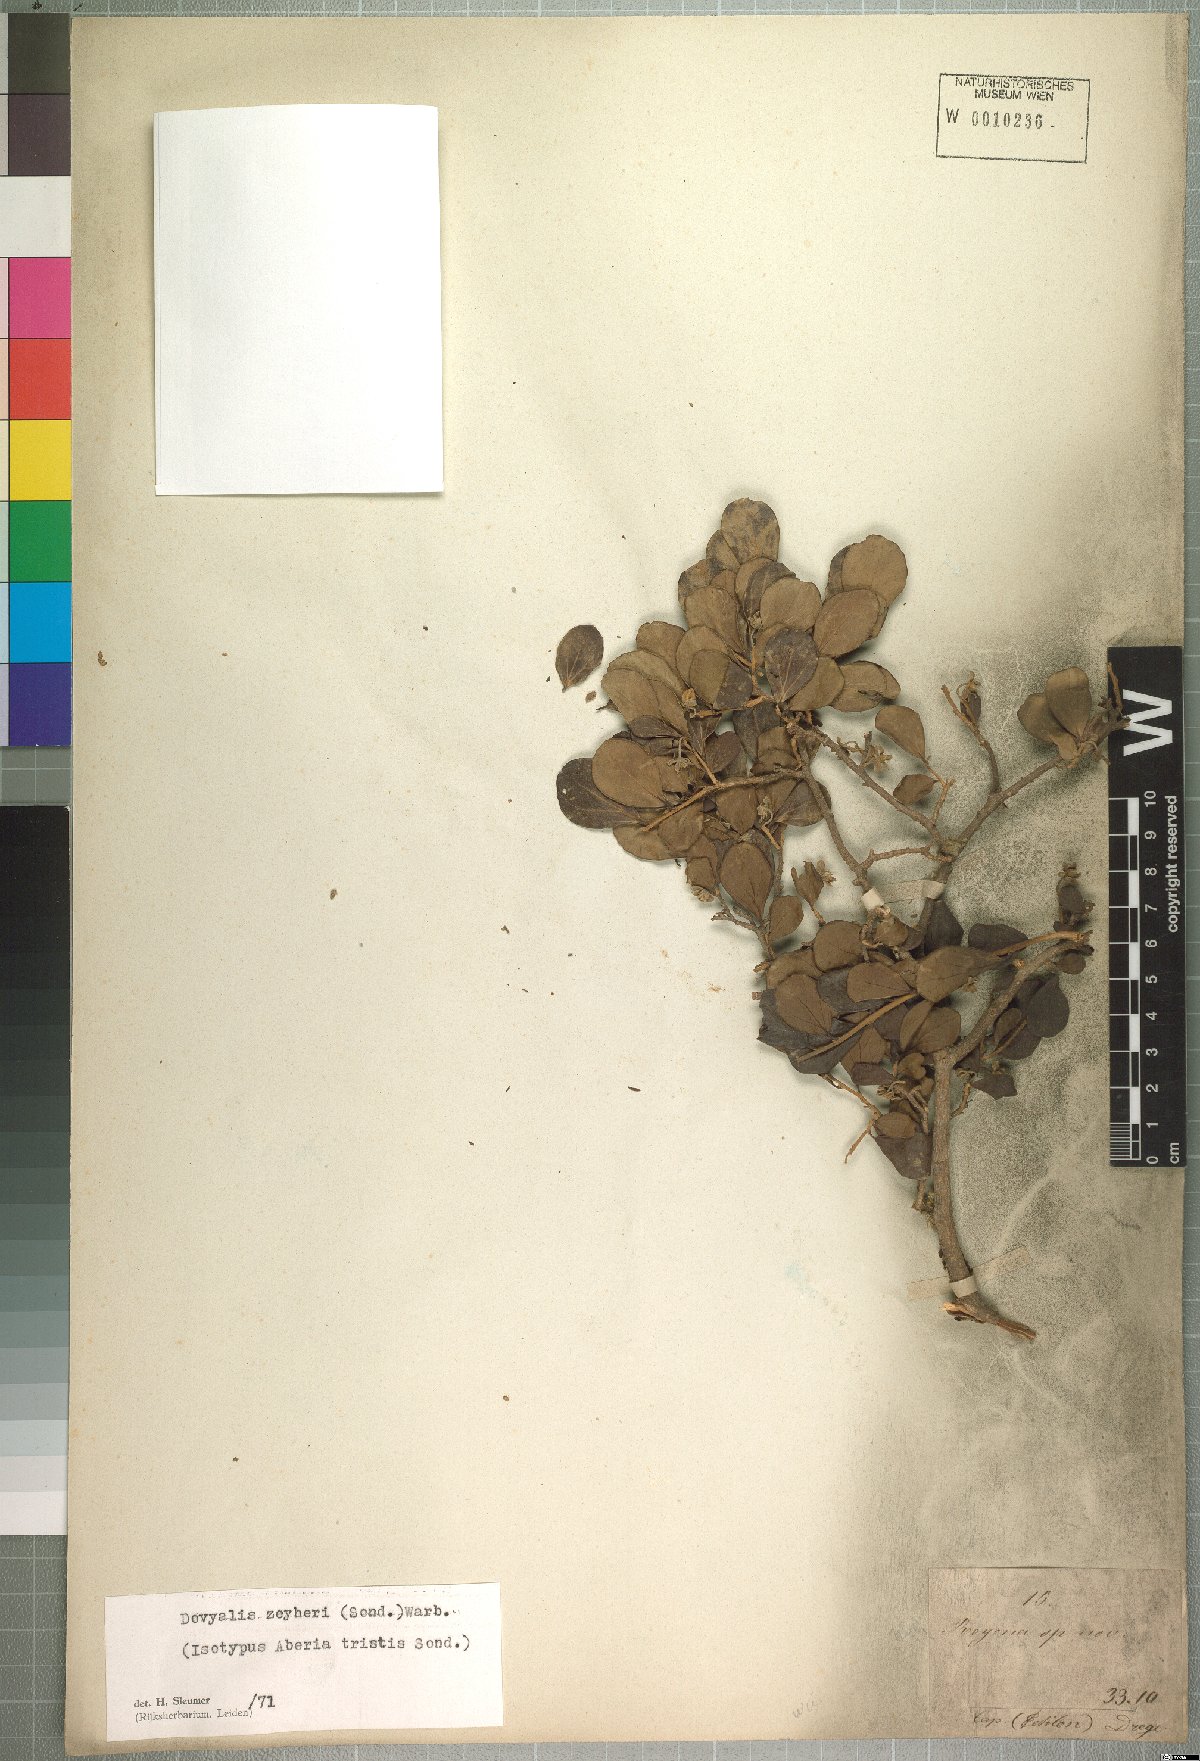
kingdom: Plantae
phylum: Tracheophyta
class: Magnoliopsida
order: Malpighiales
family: Salicaceae
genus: Dovyalis
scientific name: Dovyalis zeyheri
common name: Apricot sourberry
